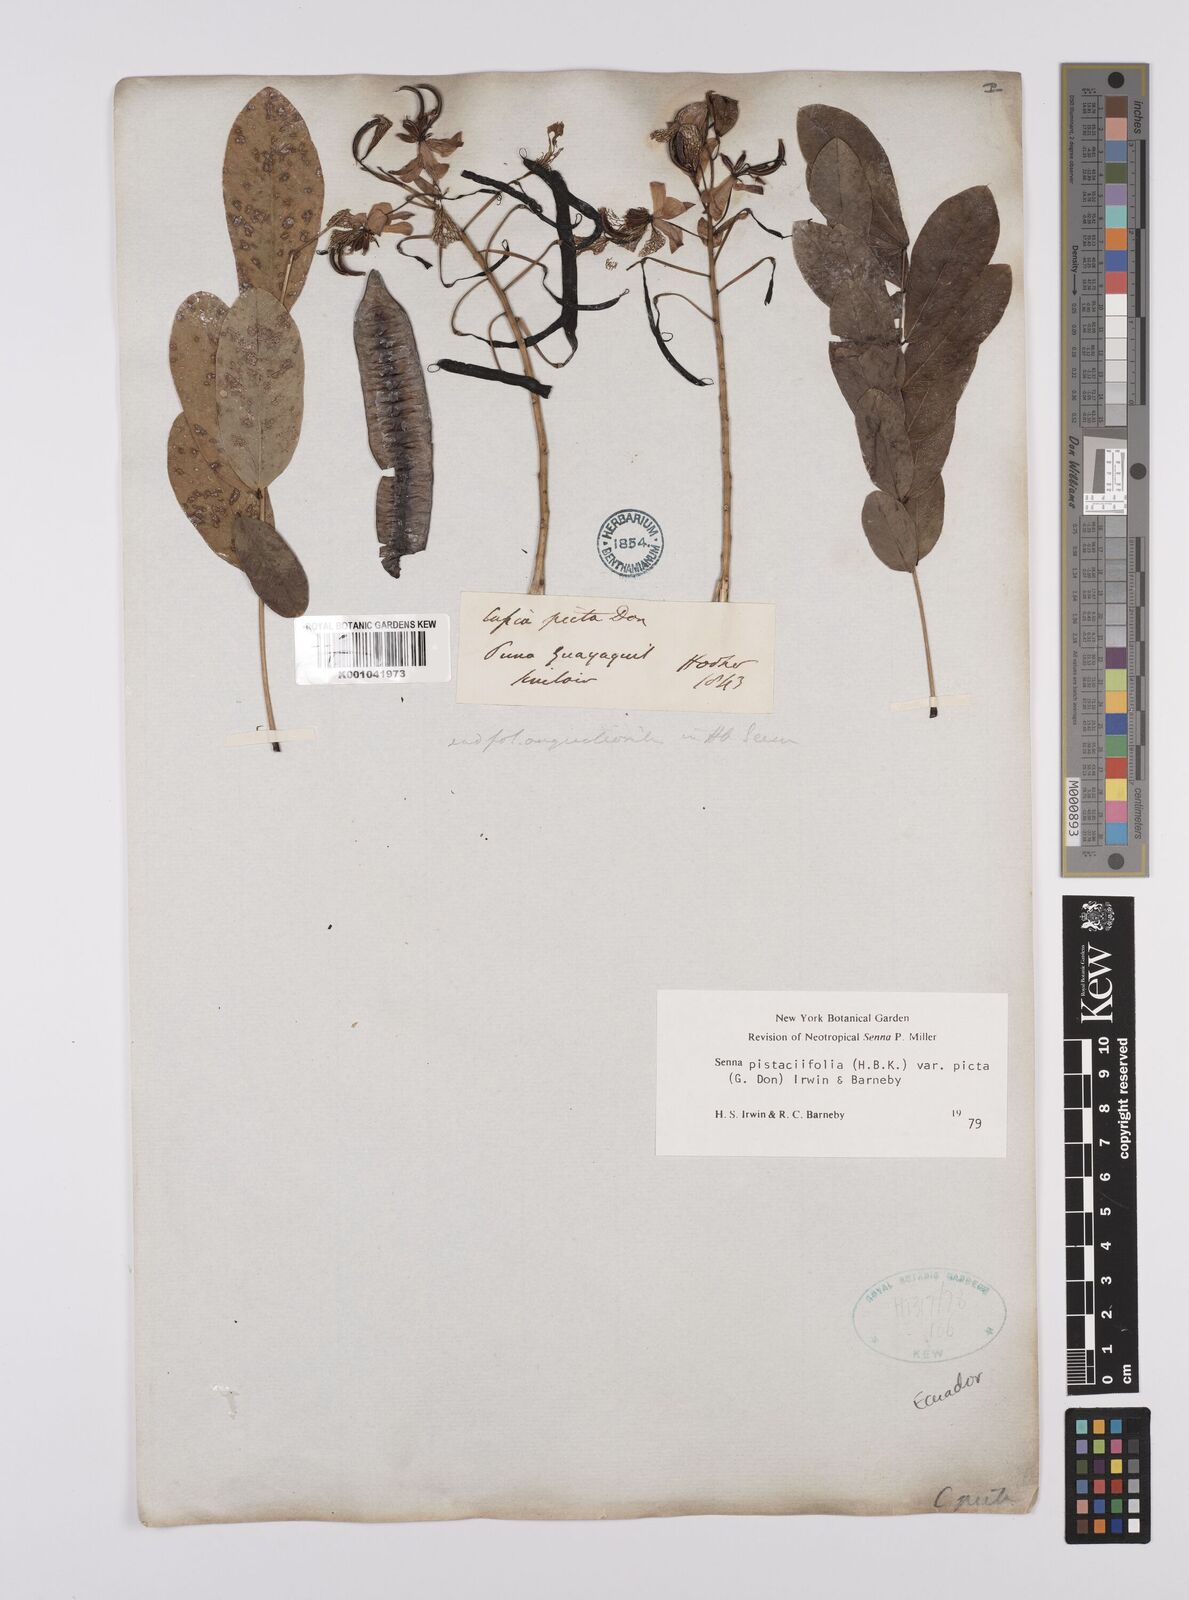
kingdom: Plantae
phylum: Tracheophyta
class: Magnoliopsida
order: Fabales
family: Fabaceae
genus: Senna
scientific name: Senna pistaciifolia
